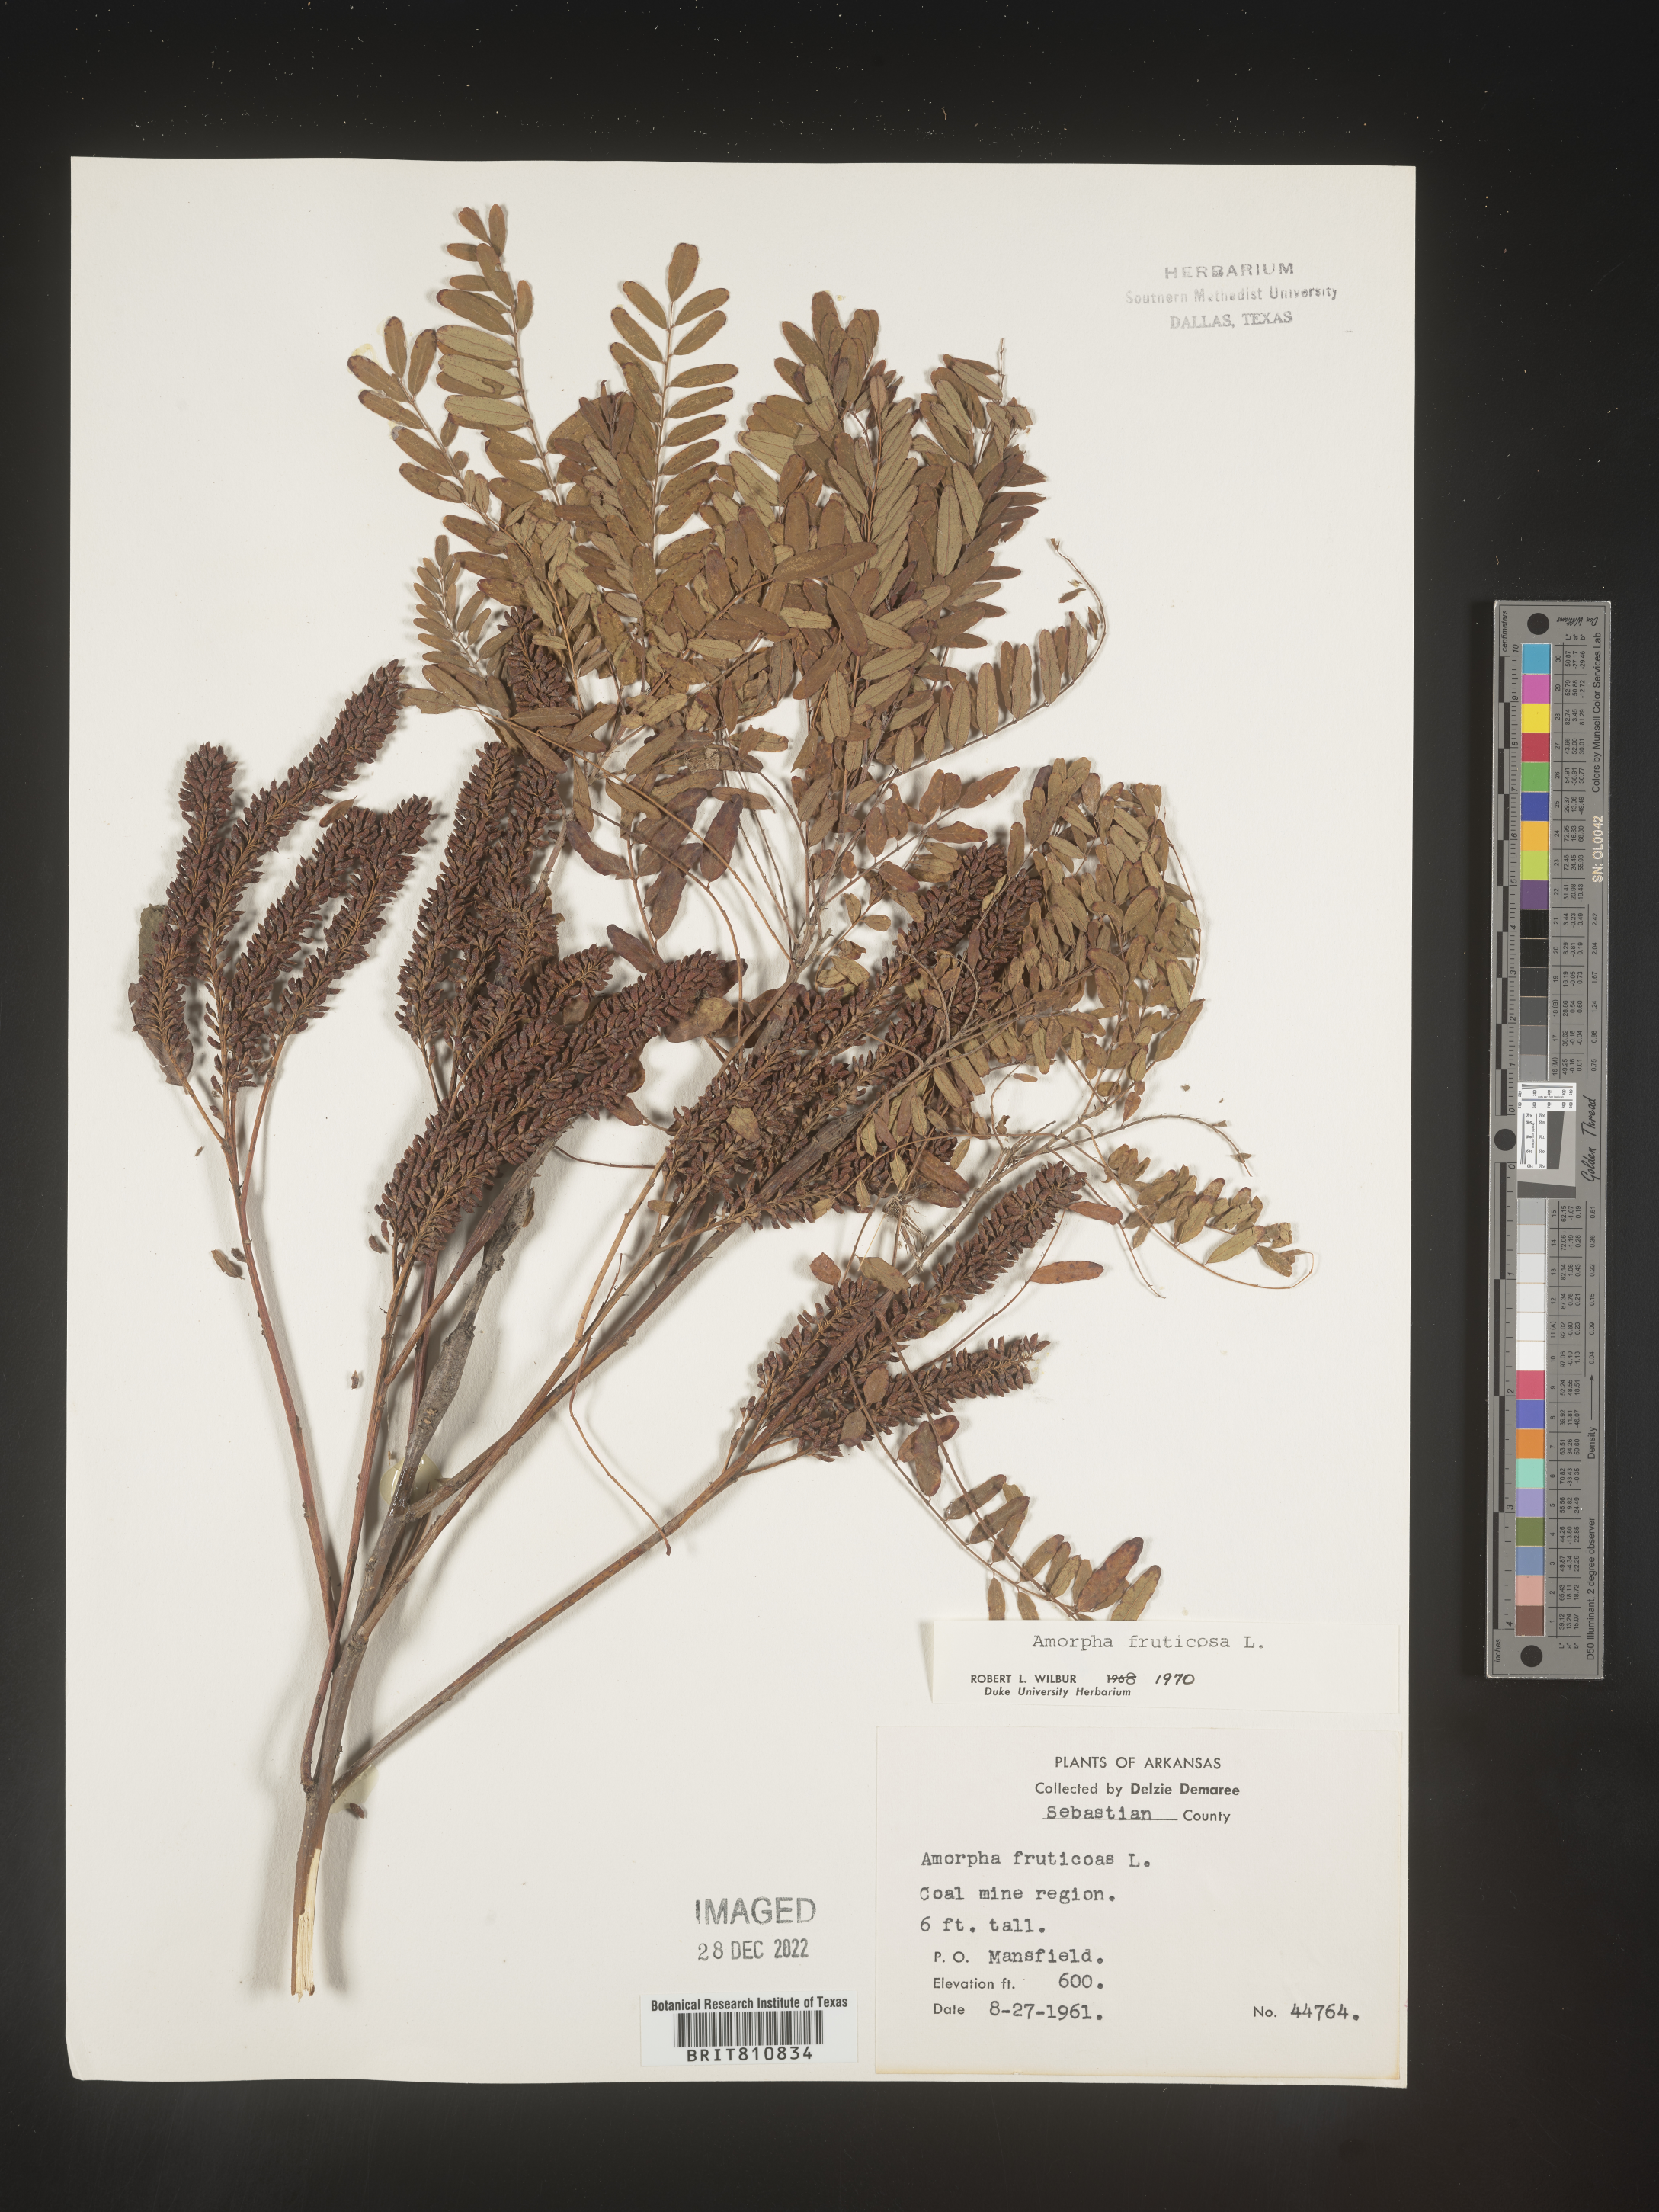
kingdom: Plantae
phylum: Tracheophyta
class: Magnoliopsida
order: Fabales
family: Fabaceae
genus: Amorpha
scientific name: Amorpha fruticosa
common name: False indigo
